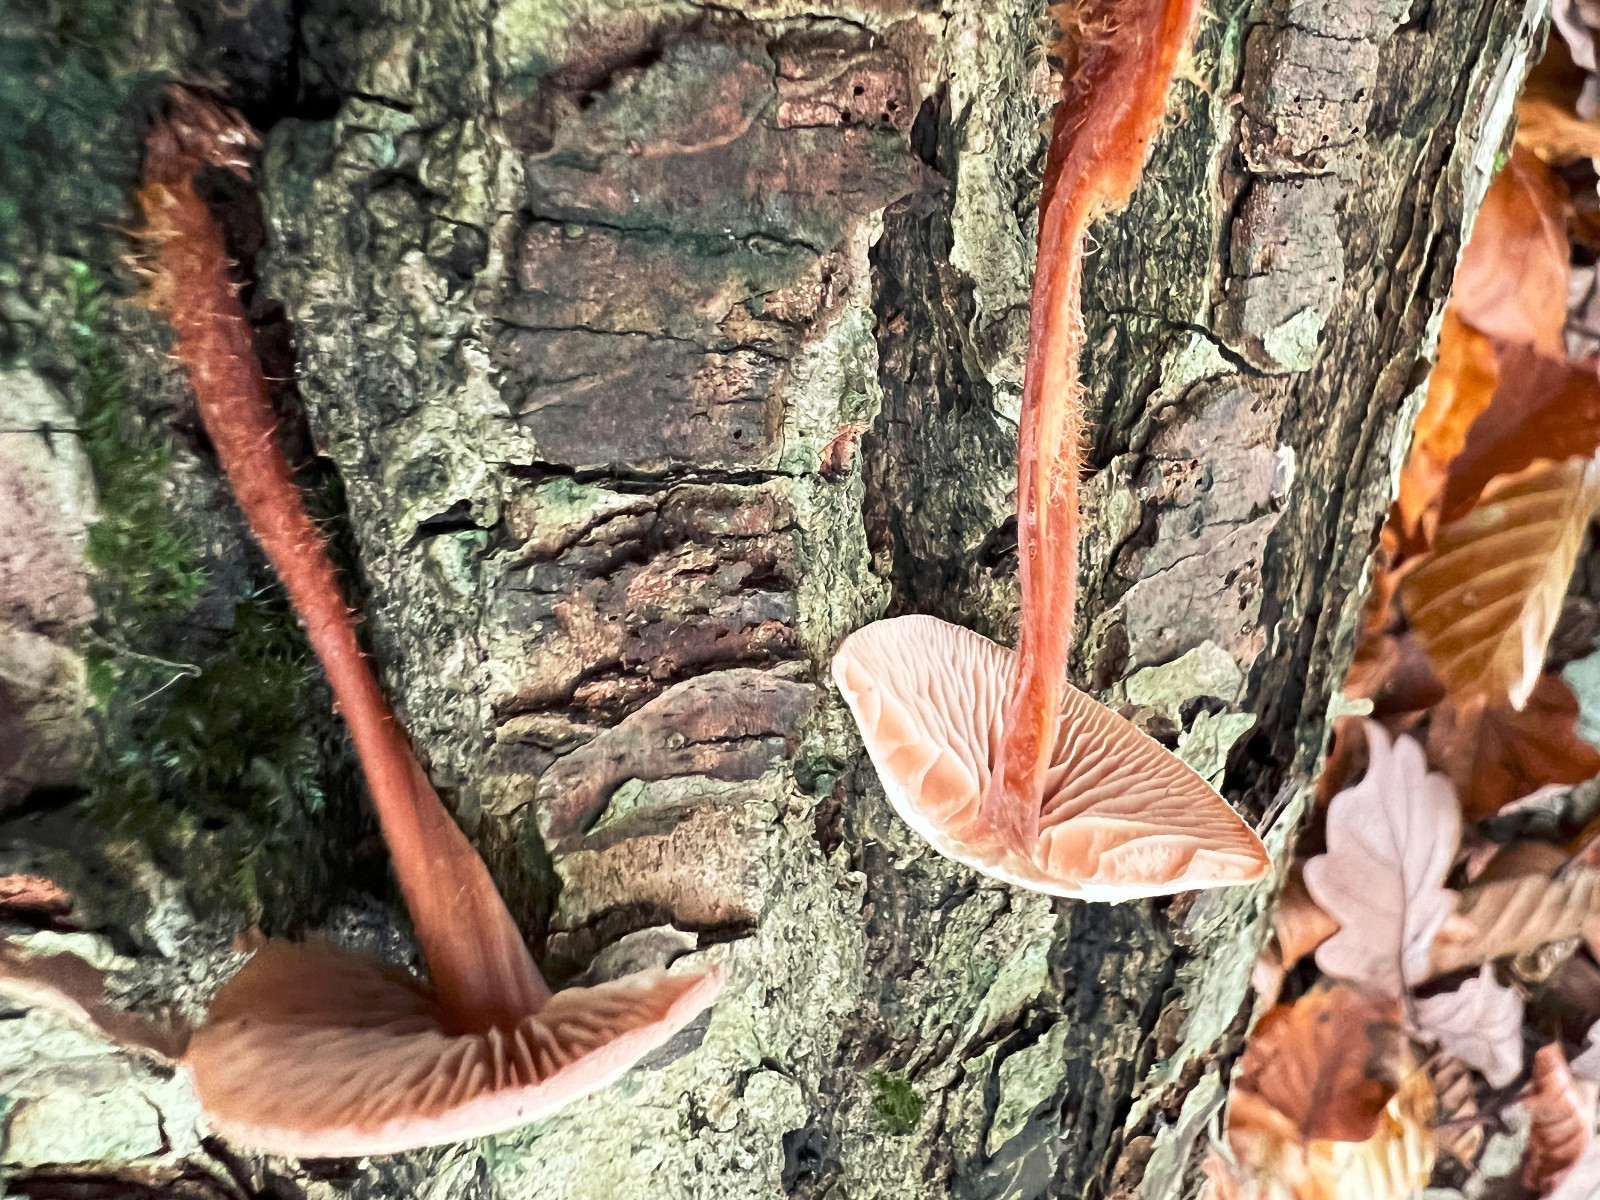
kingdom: Fungi
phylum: Basidiomycota
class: Agaricomycetes
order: Agaricales
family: Omphalotaceae
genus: Gymnopus
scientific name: Gymnopus fagiphilus
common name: bøgeløv-fladhat
